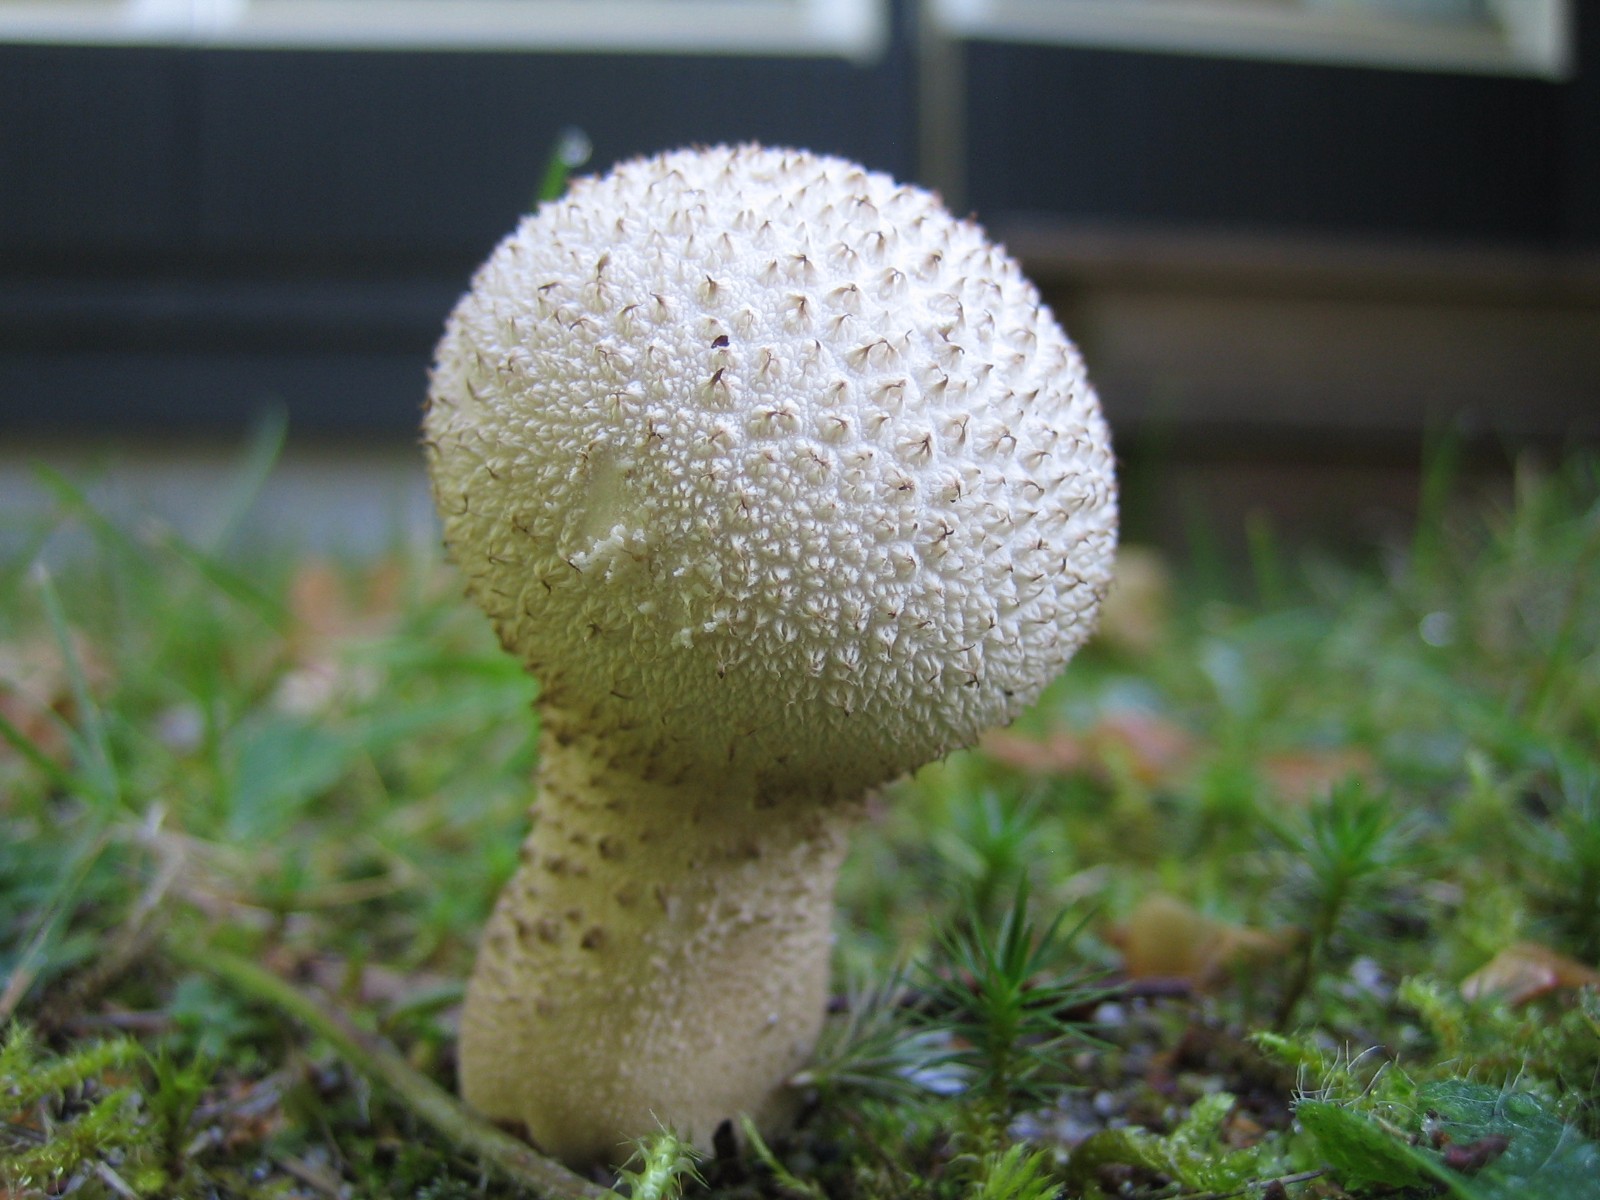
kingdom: Fungi
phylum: Basidiomycota
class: Agaricomycetes
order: Agaricales
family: Lycoperdaceae
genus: Lycoperdon
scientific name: Lycoperdon excipuliforme
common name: højstokket støvbold
